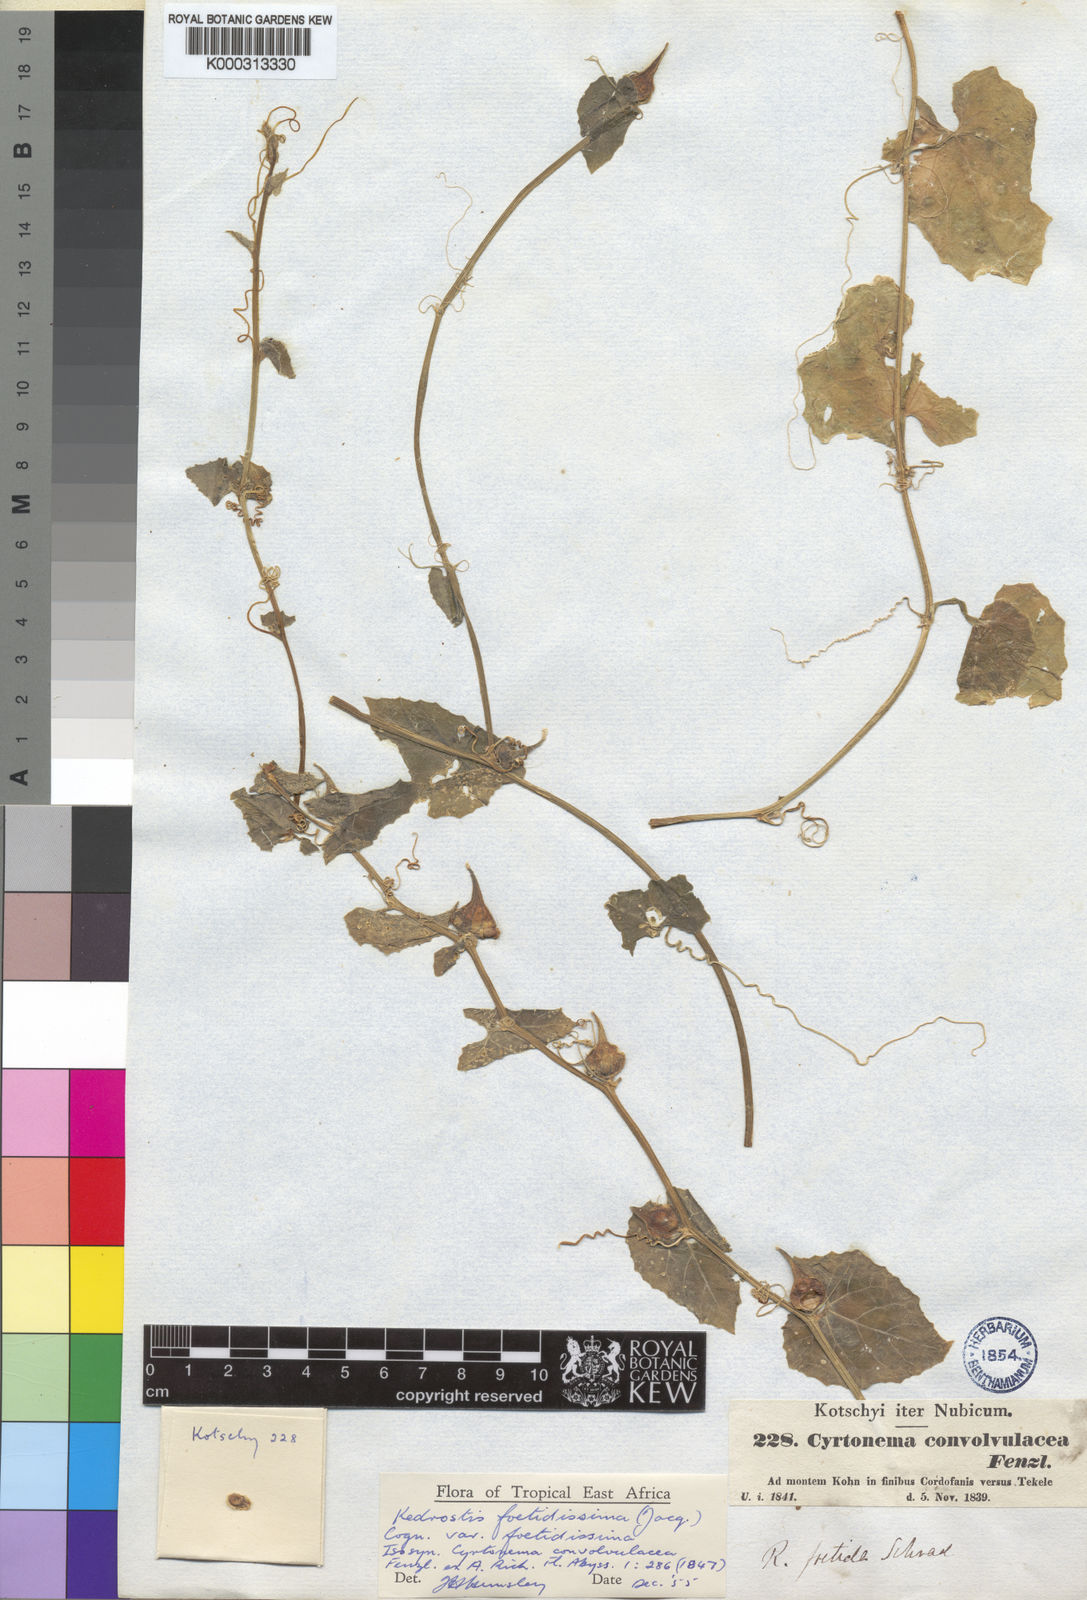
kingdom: Plantae
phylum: Tracheophyta
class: Magnoliopsida
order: Cucurbitales
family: Cucurbitaceae
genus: Kedrostis
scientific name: Kedrostis foetidissima
